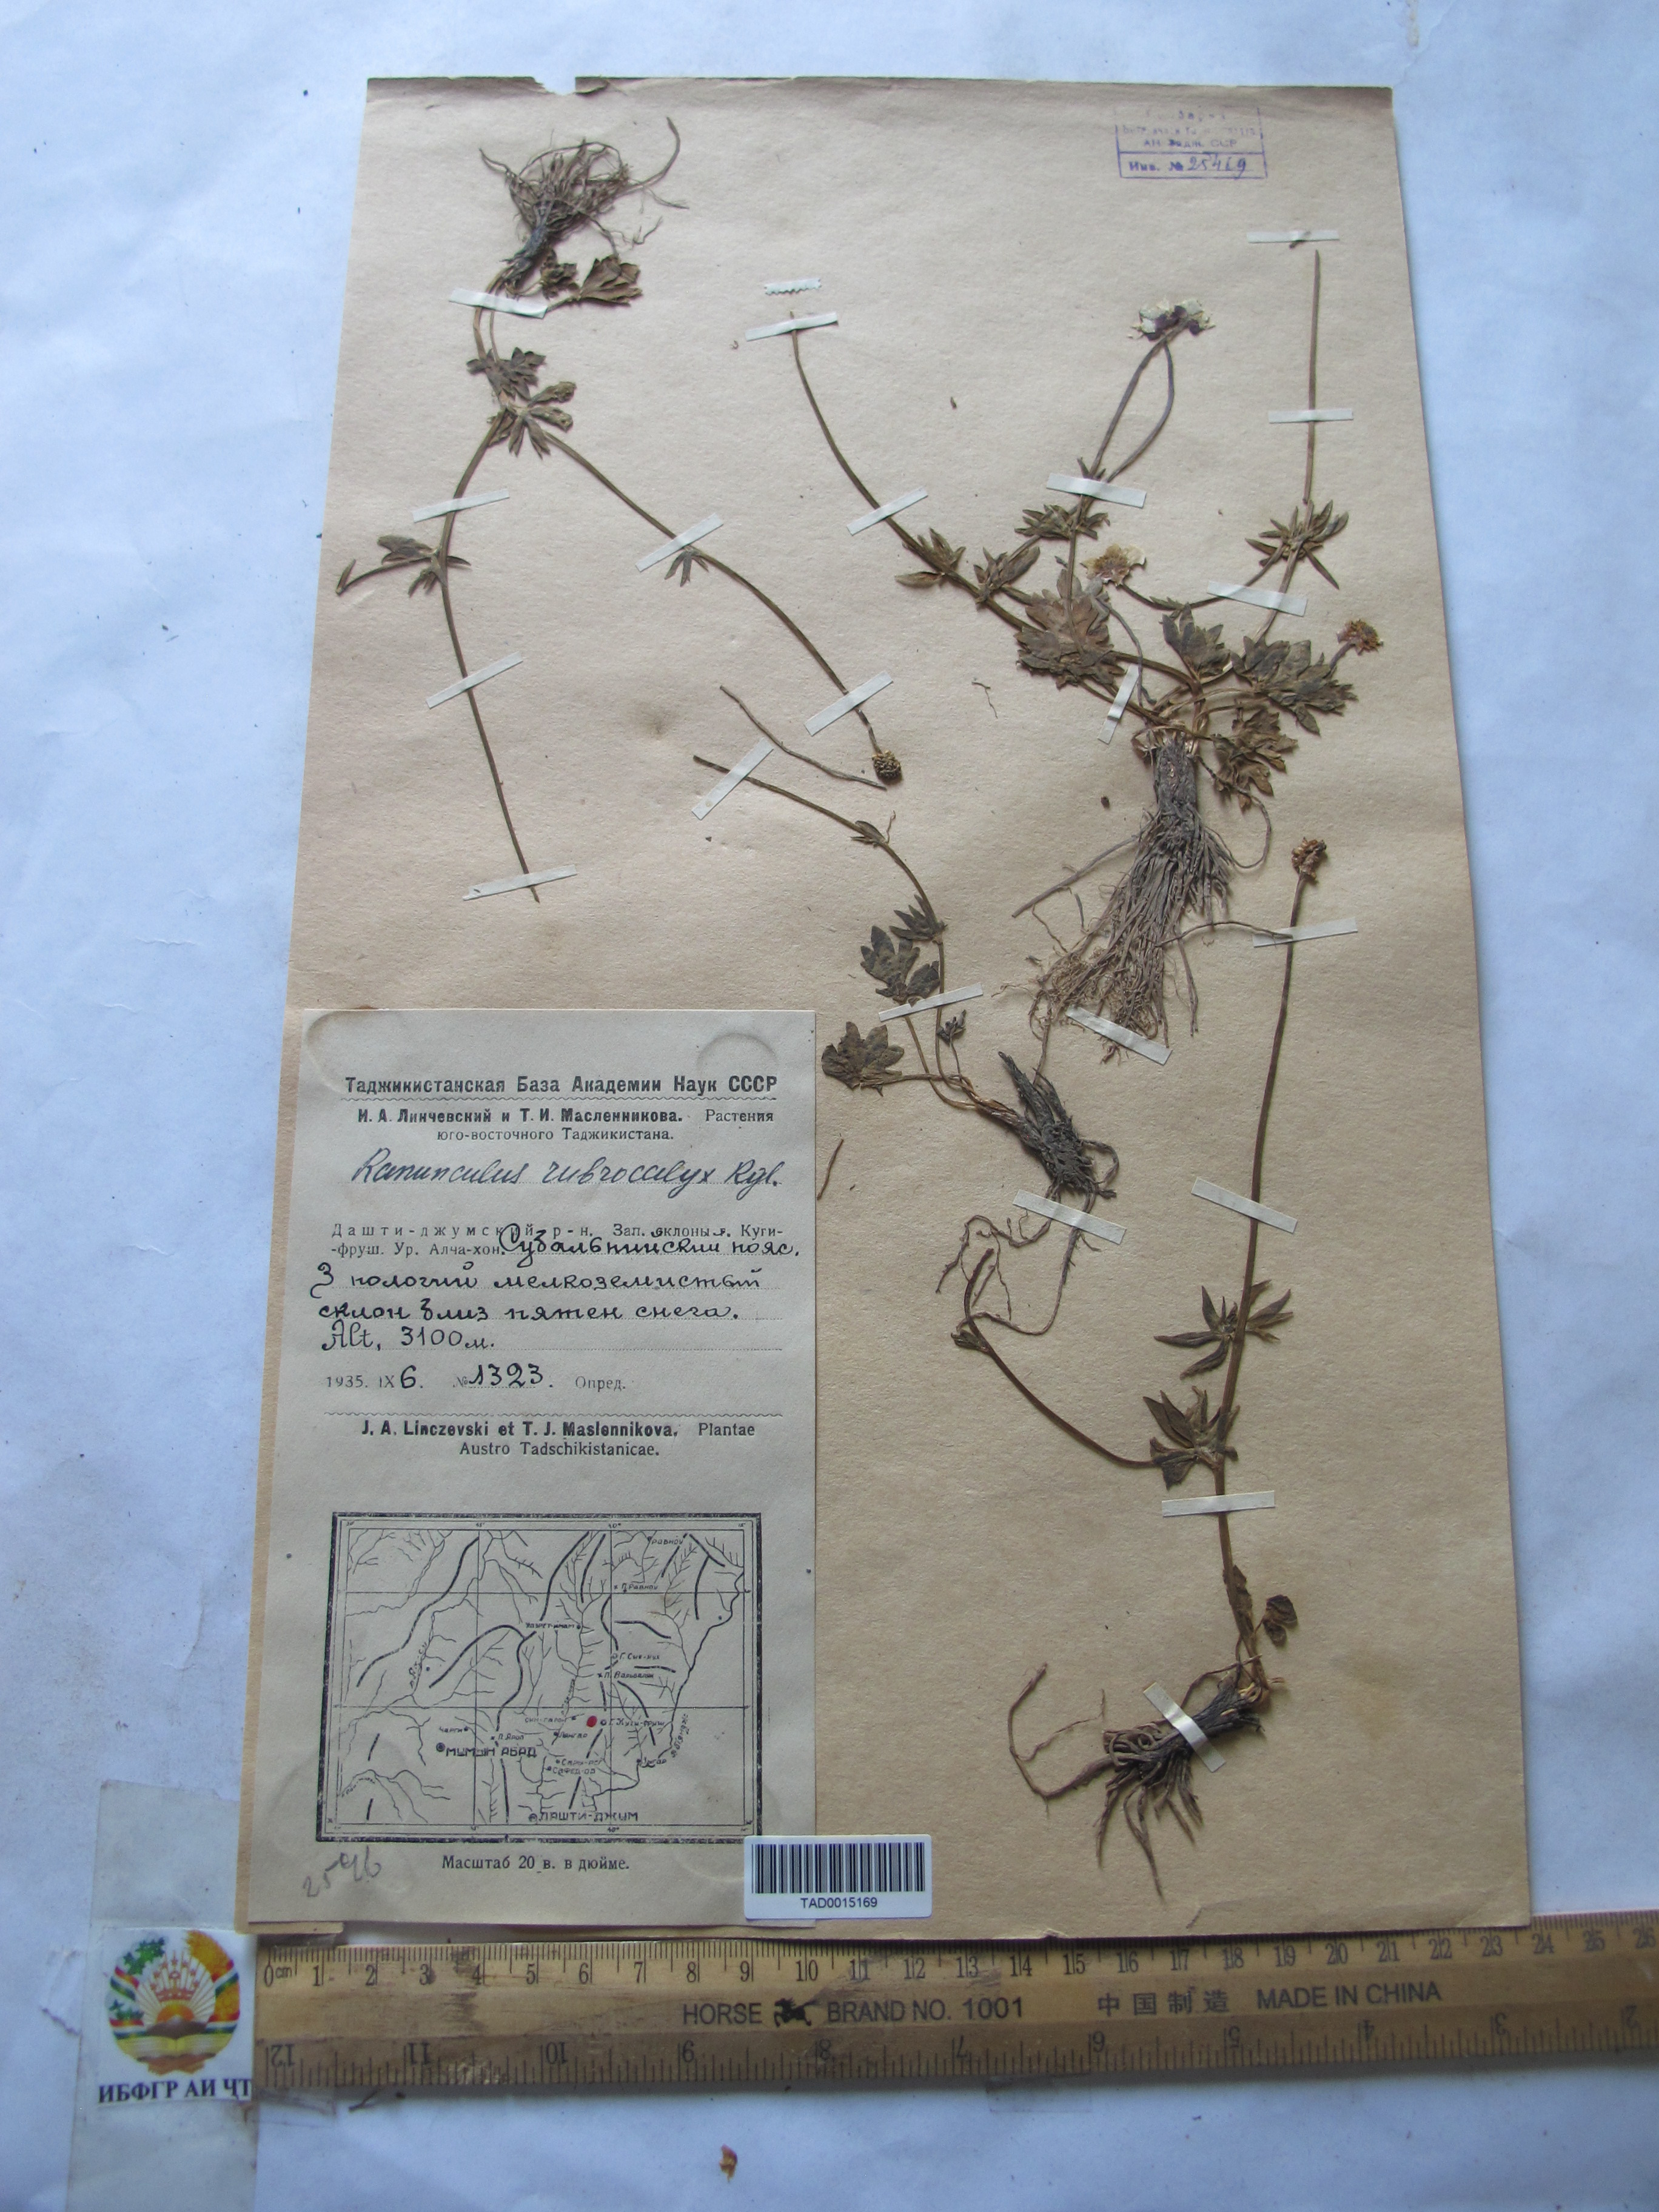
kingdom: Plantae
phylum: Tracheophyta
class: Magnoliopsida
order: Ranunculales
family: Ranunculaceae
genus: Ranunculus
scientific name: Ranunculus rubrocalyx
